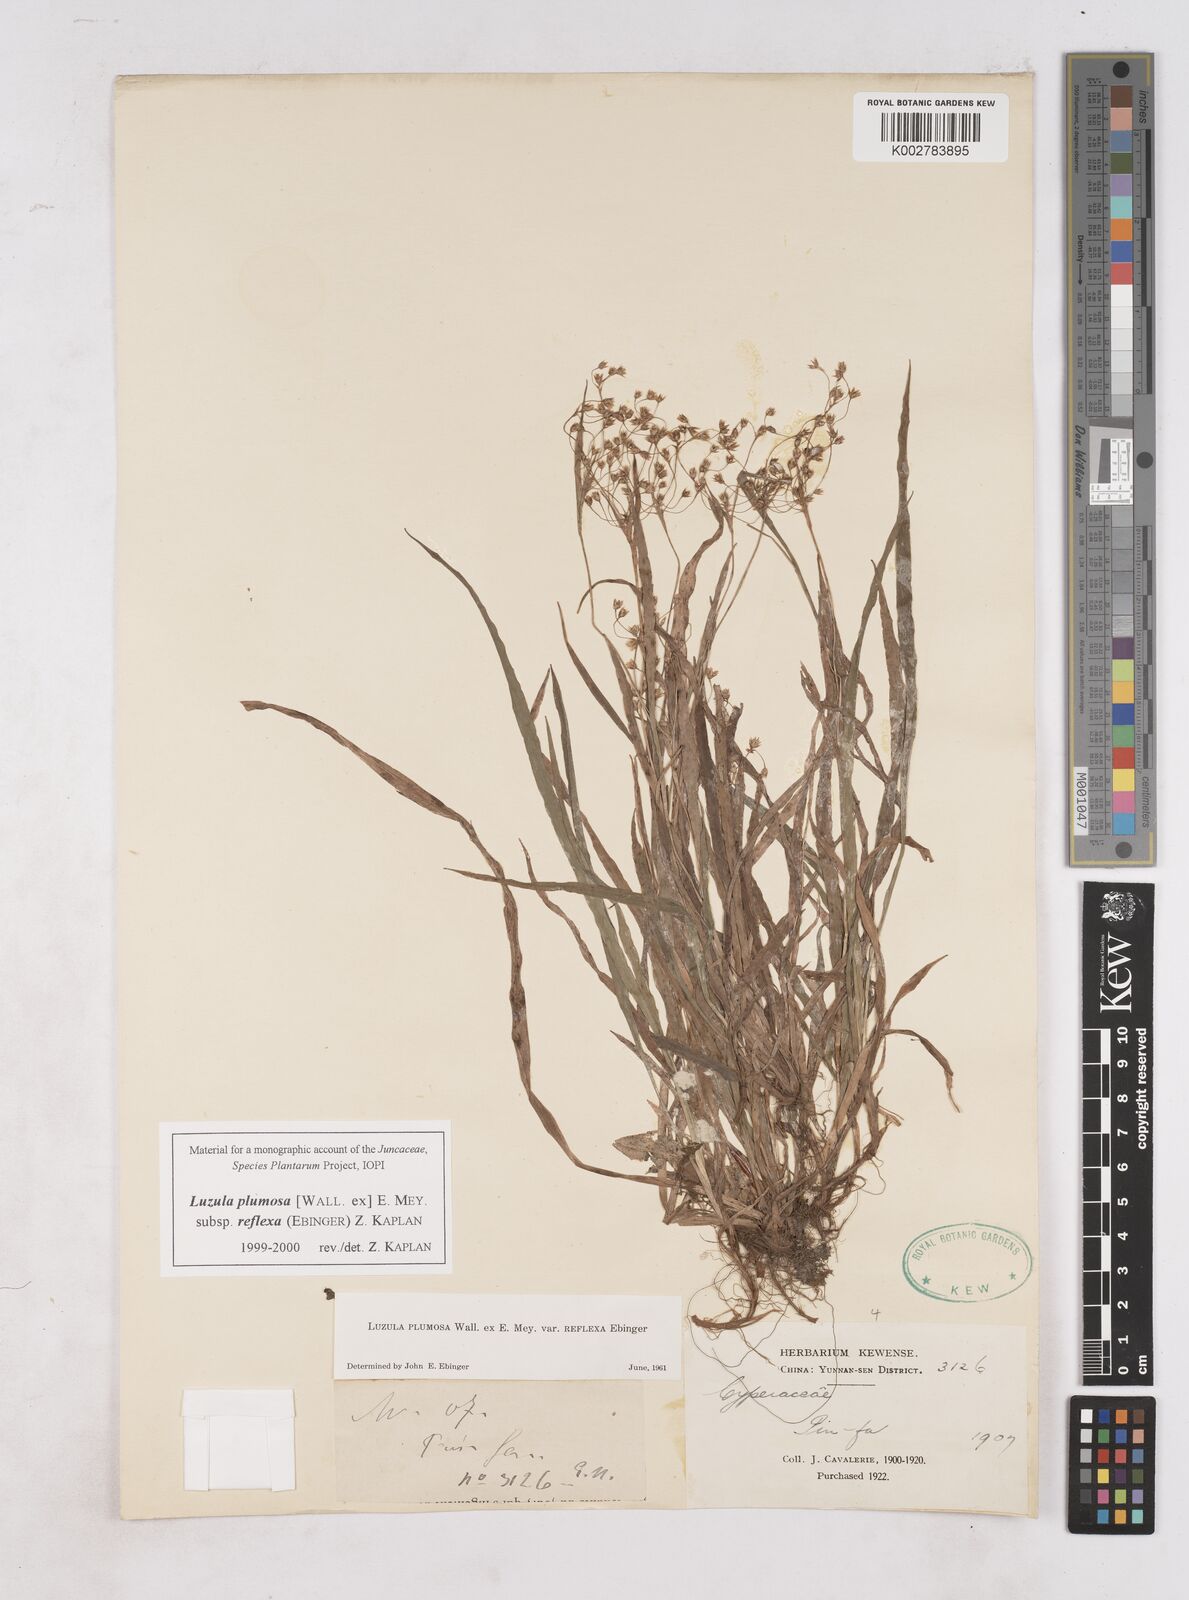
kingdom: Plantae
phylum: Tracheophyta
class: Liliopsida
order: Poales
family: Juncaceae
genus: Luzula
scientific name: Luzula plumosa
